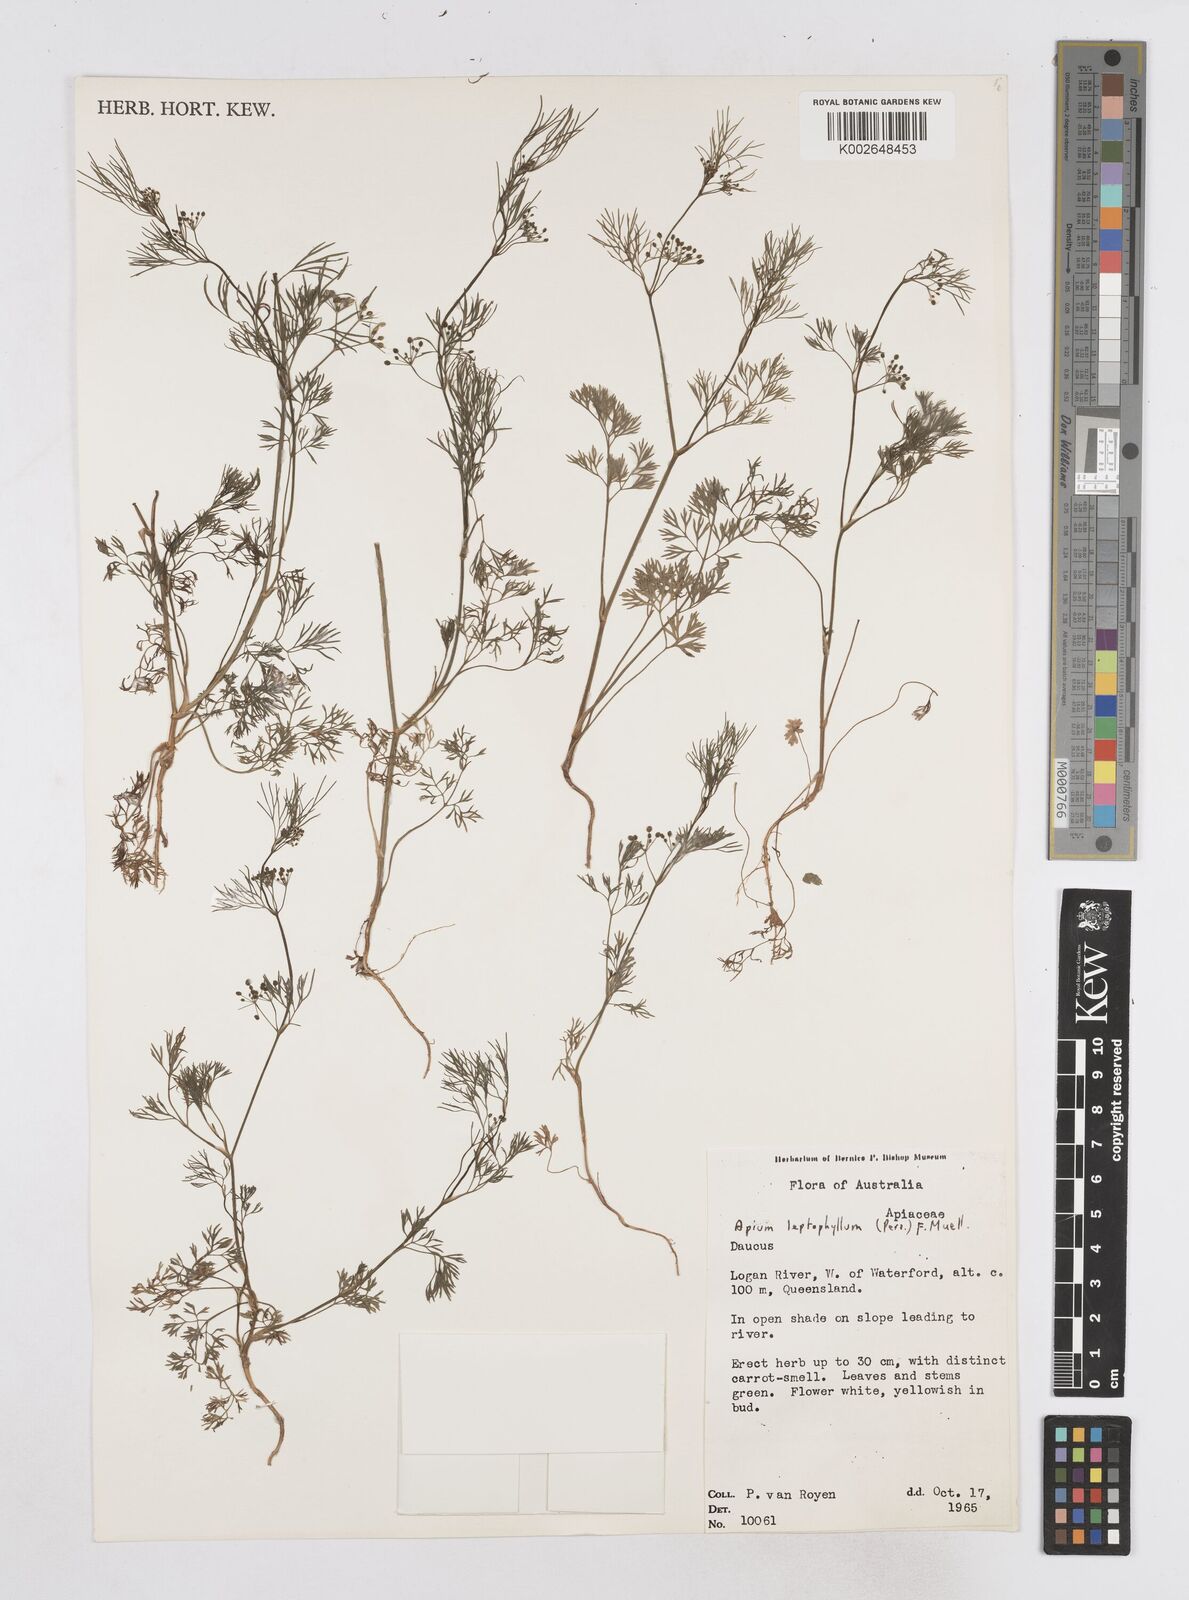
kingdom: Plantae
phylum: Tracheophyta
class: Magnoliopsida
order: Apiales
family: Apiaceae
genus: Cyclospermum
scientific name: Cyclospermum leptophyllum
